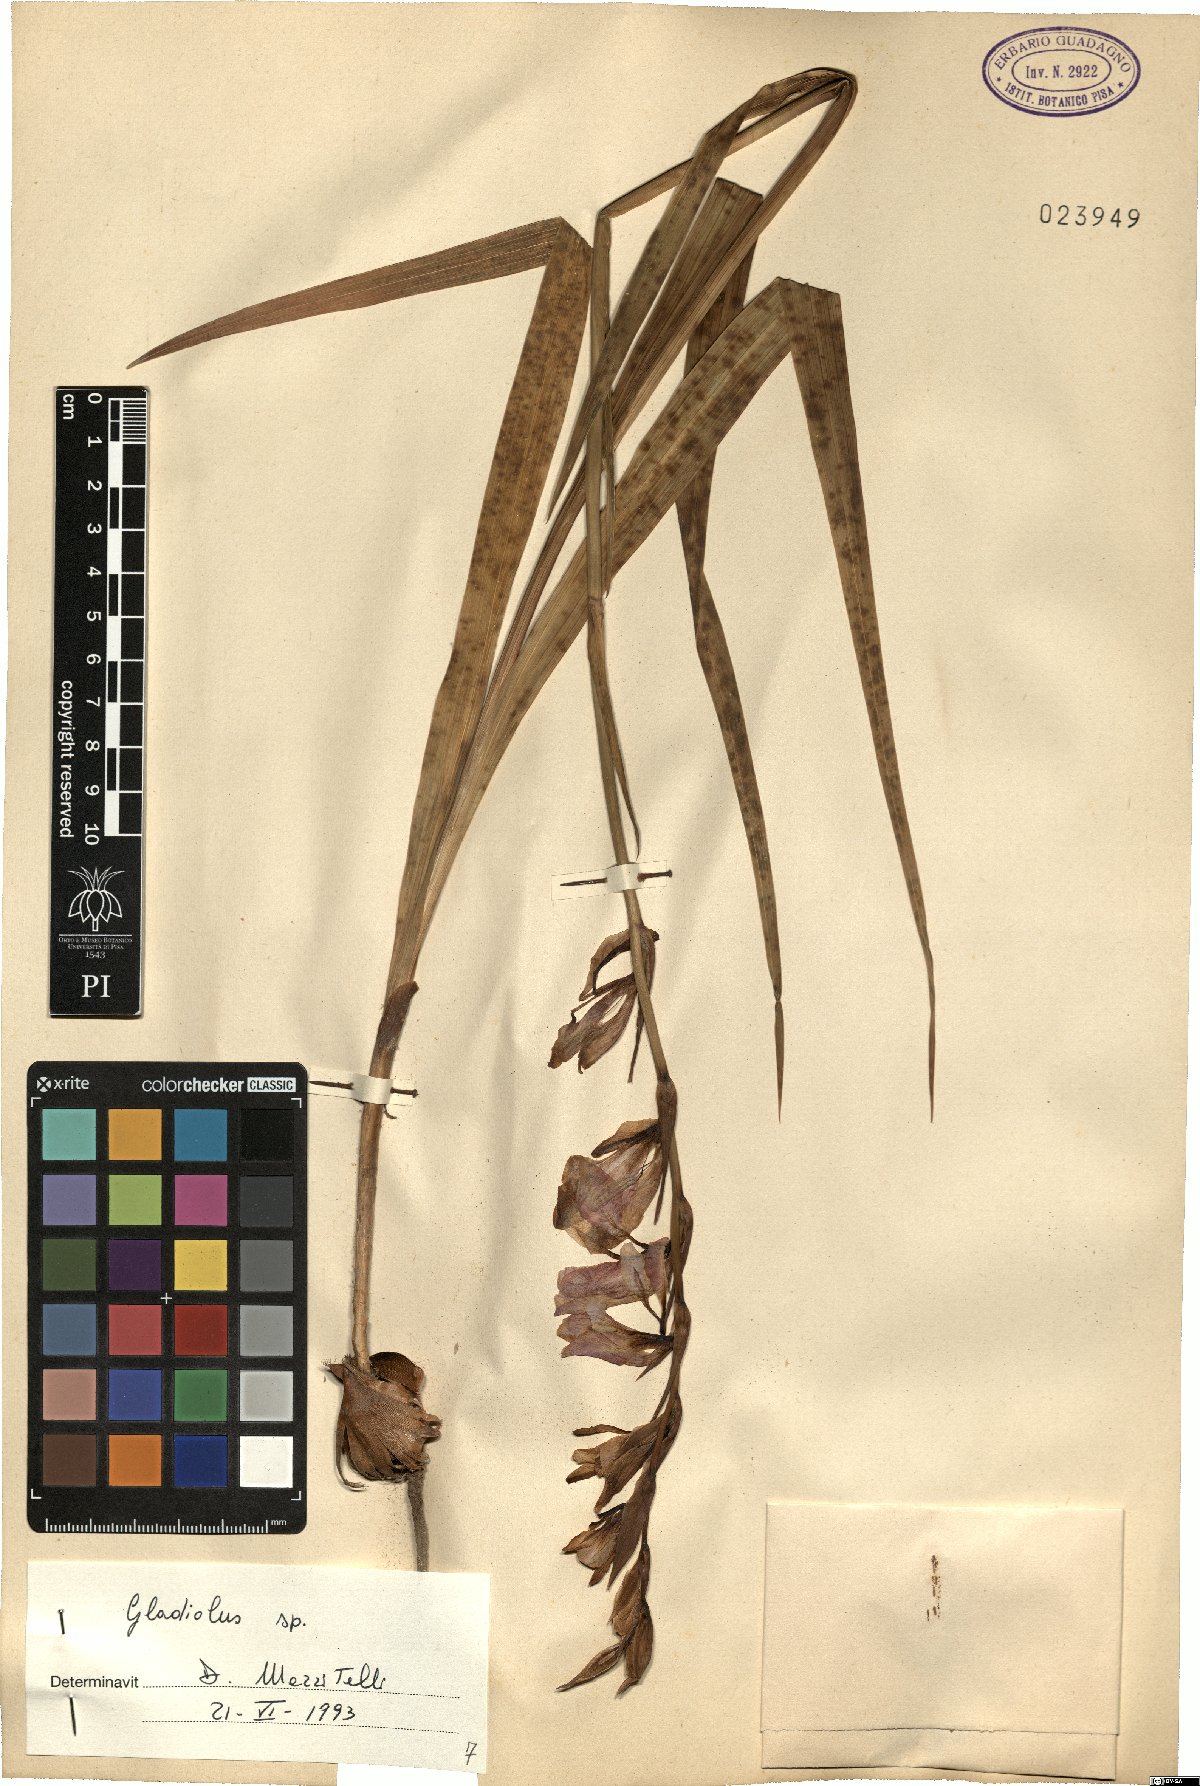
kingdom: Plantae
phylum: Tracheophyta
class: Liliopsida
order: Asparagales
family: Iridaceae
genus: Gladiolus
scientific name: Gladiolus
